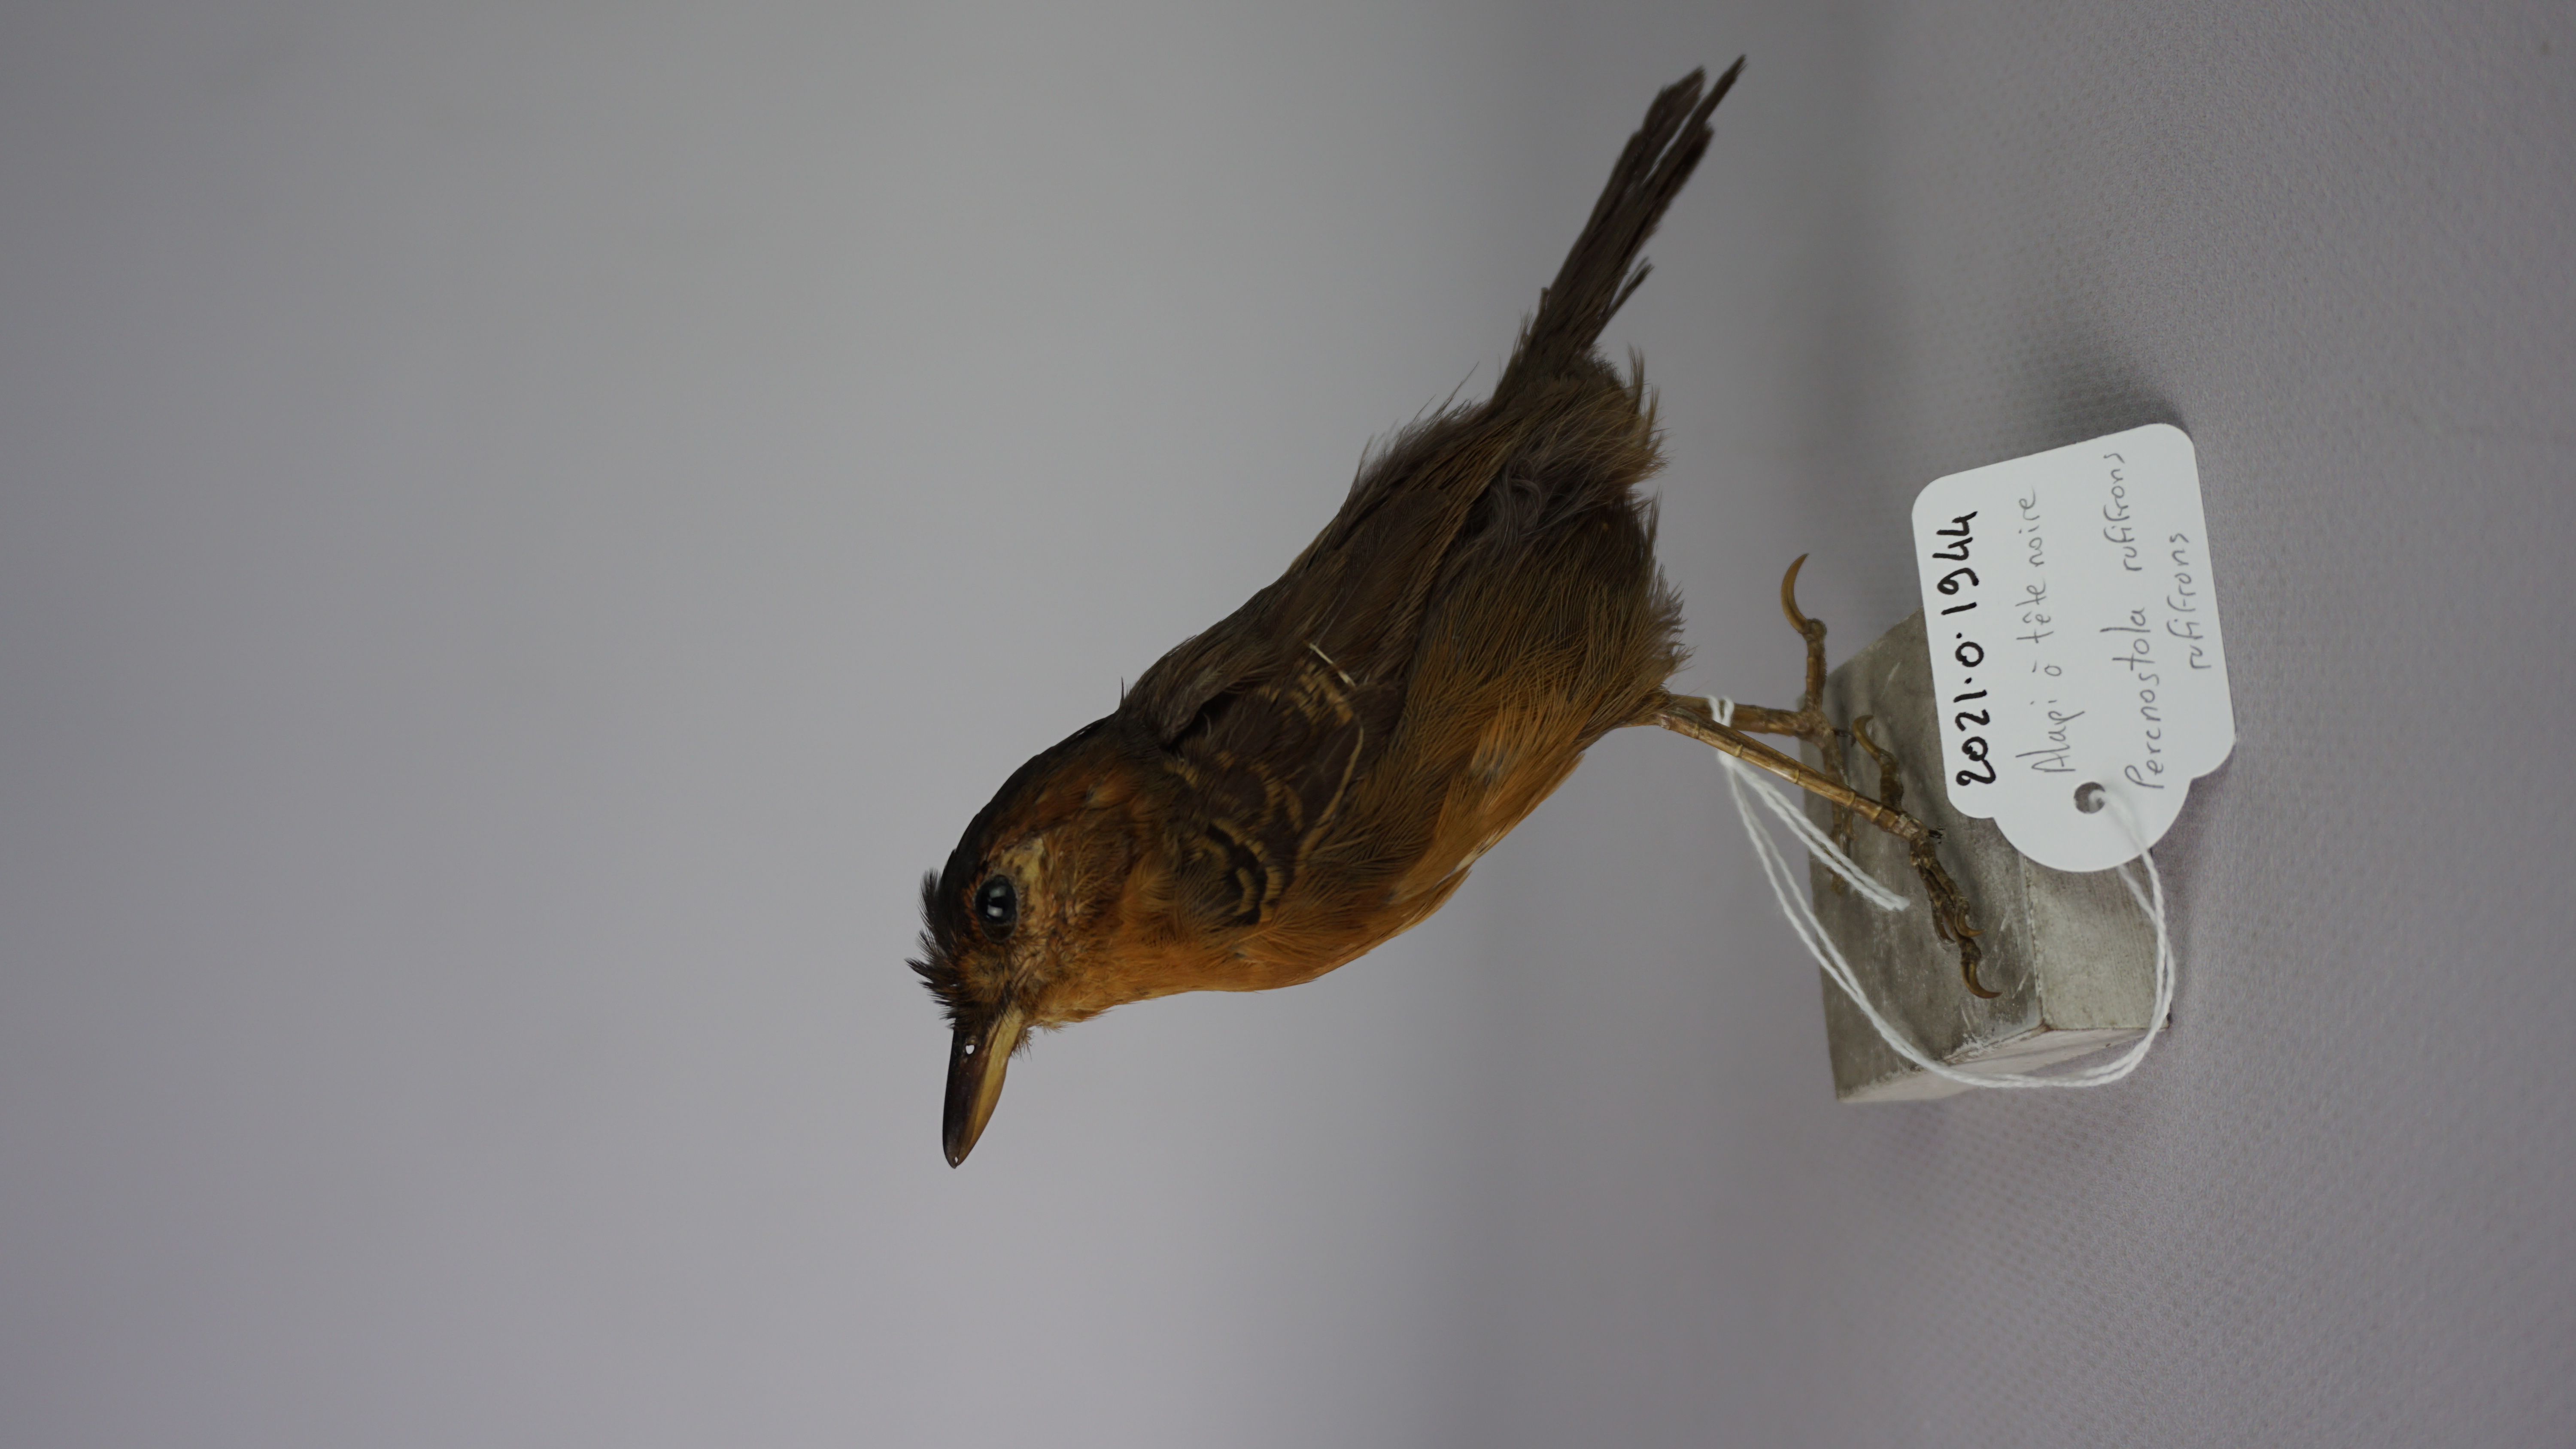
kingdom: Animalia
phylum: Chordata
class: Aves
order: Passeriformes
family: Thamnophilidae
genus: Percnostola
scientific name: Percnostola rufifrons
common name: Black-headed antbird
